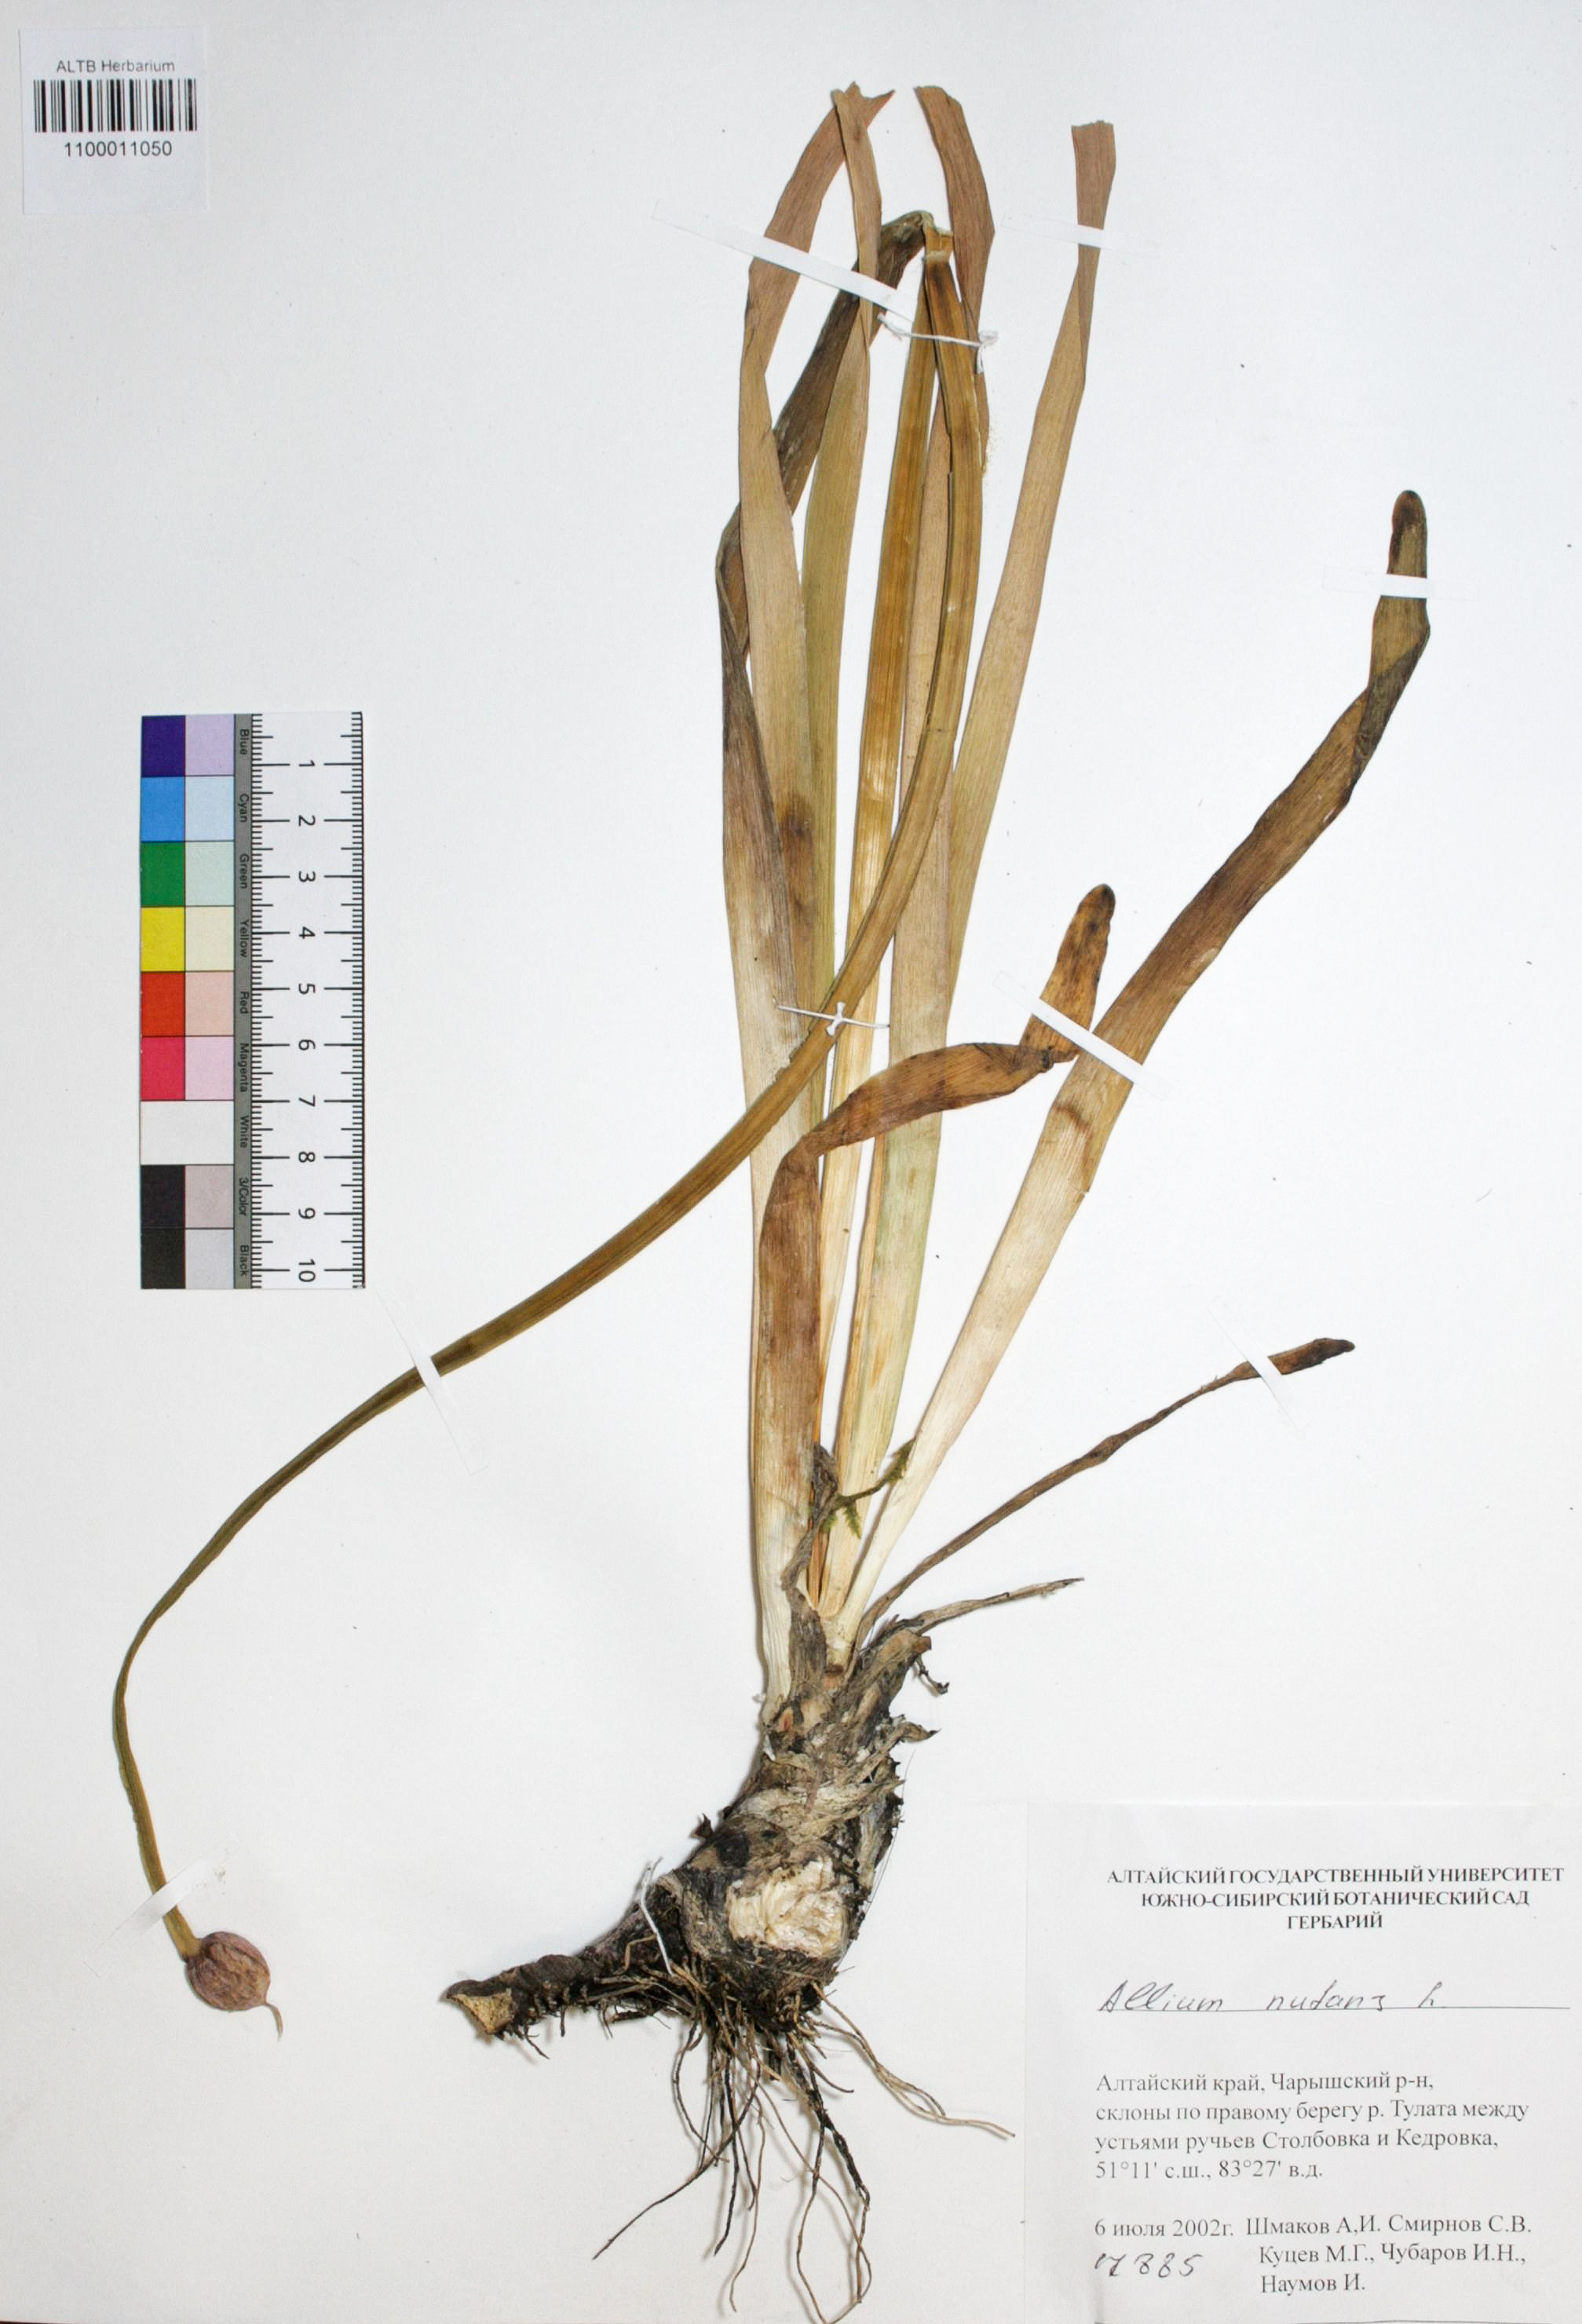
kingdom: Plantae
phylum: Tracheophyta
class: Liliopsida
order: Asparagales
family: Amaryllidaceae
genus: Allium
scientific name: Allium nutans
